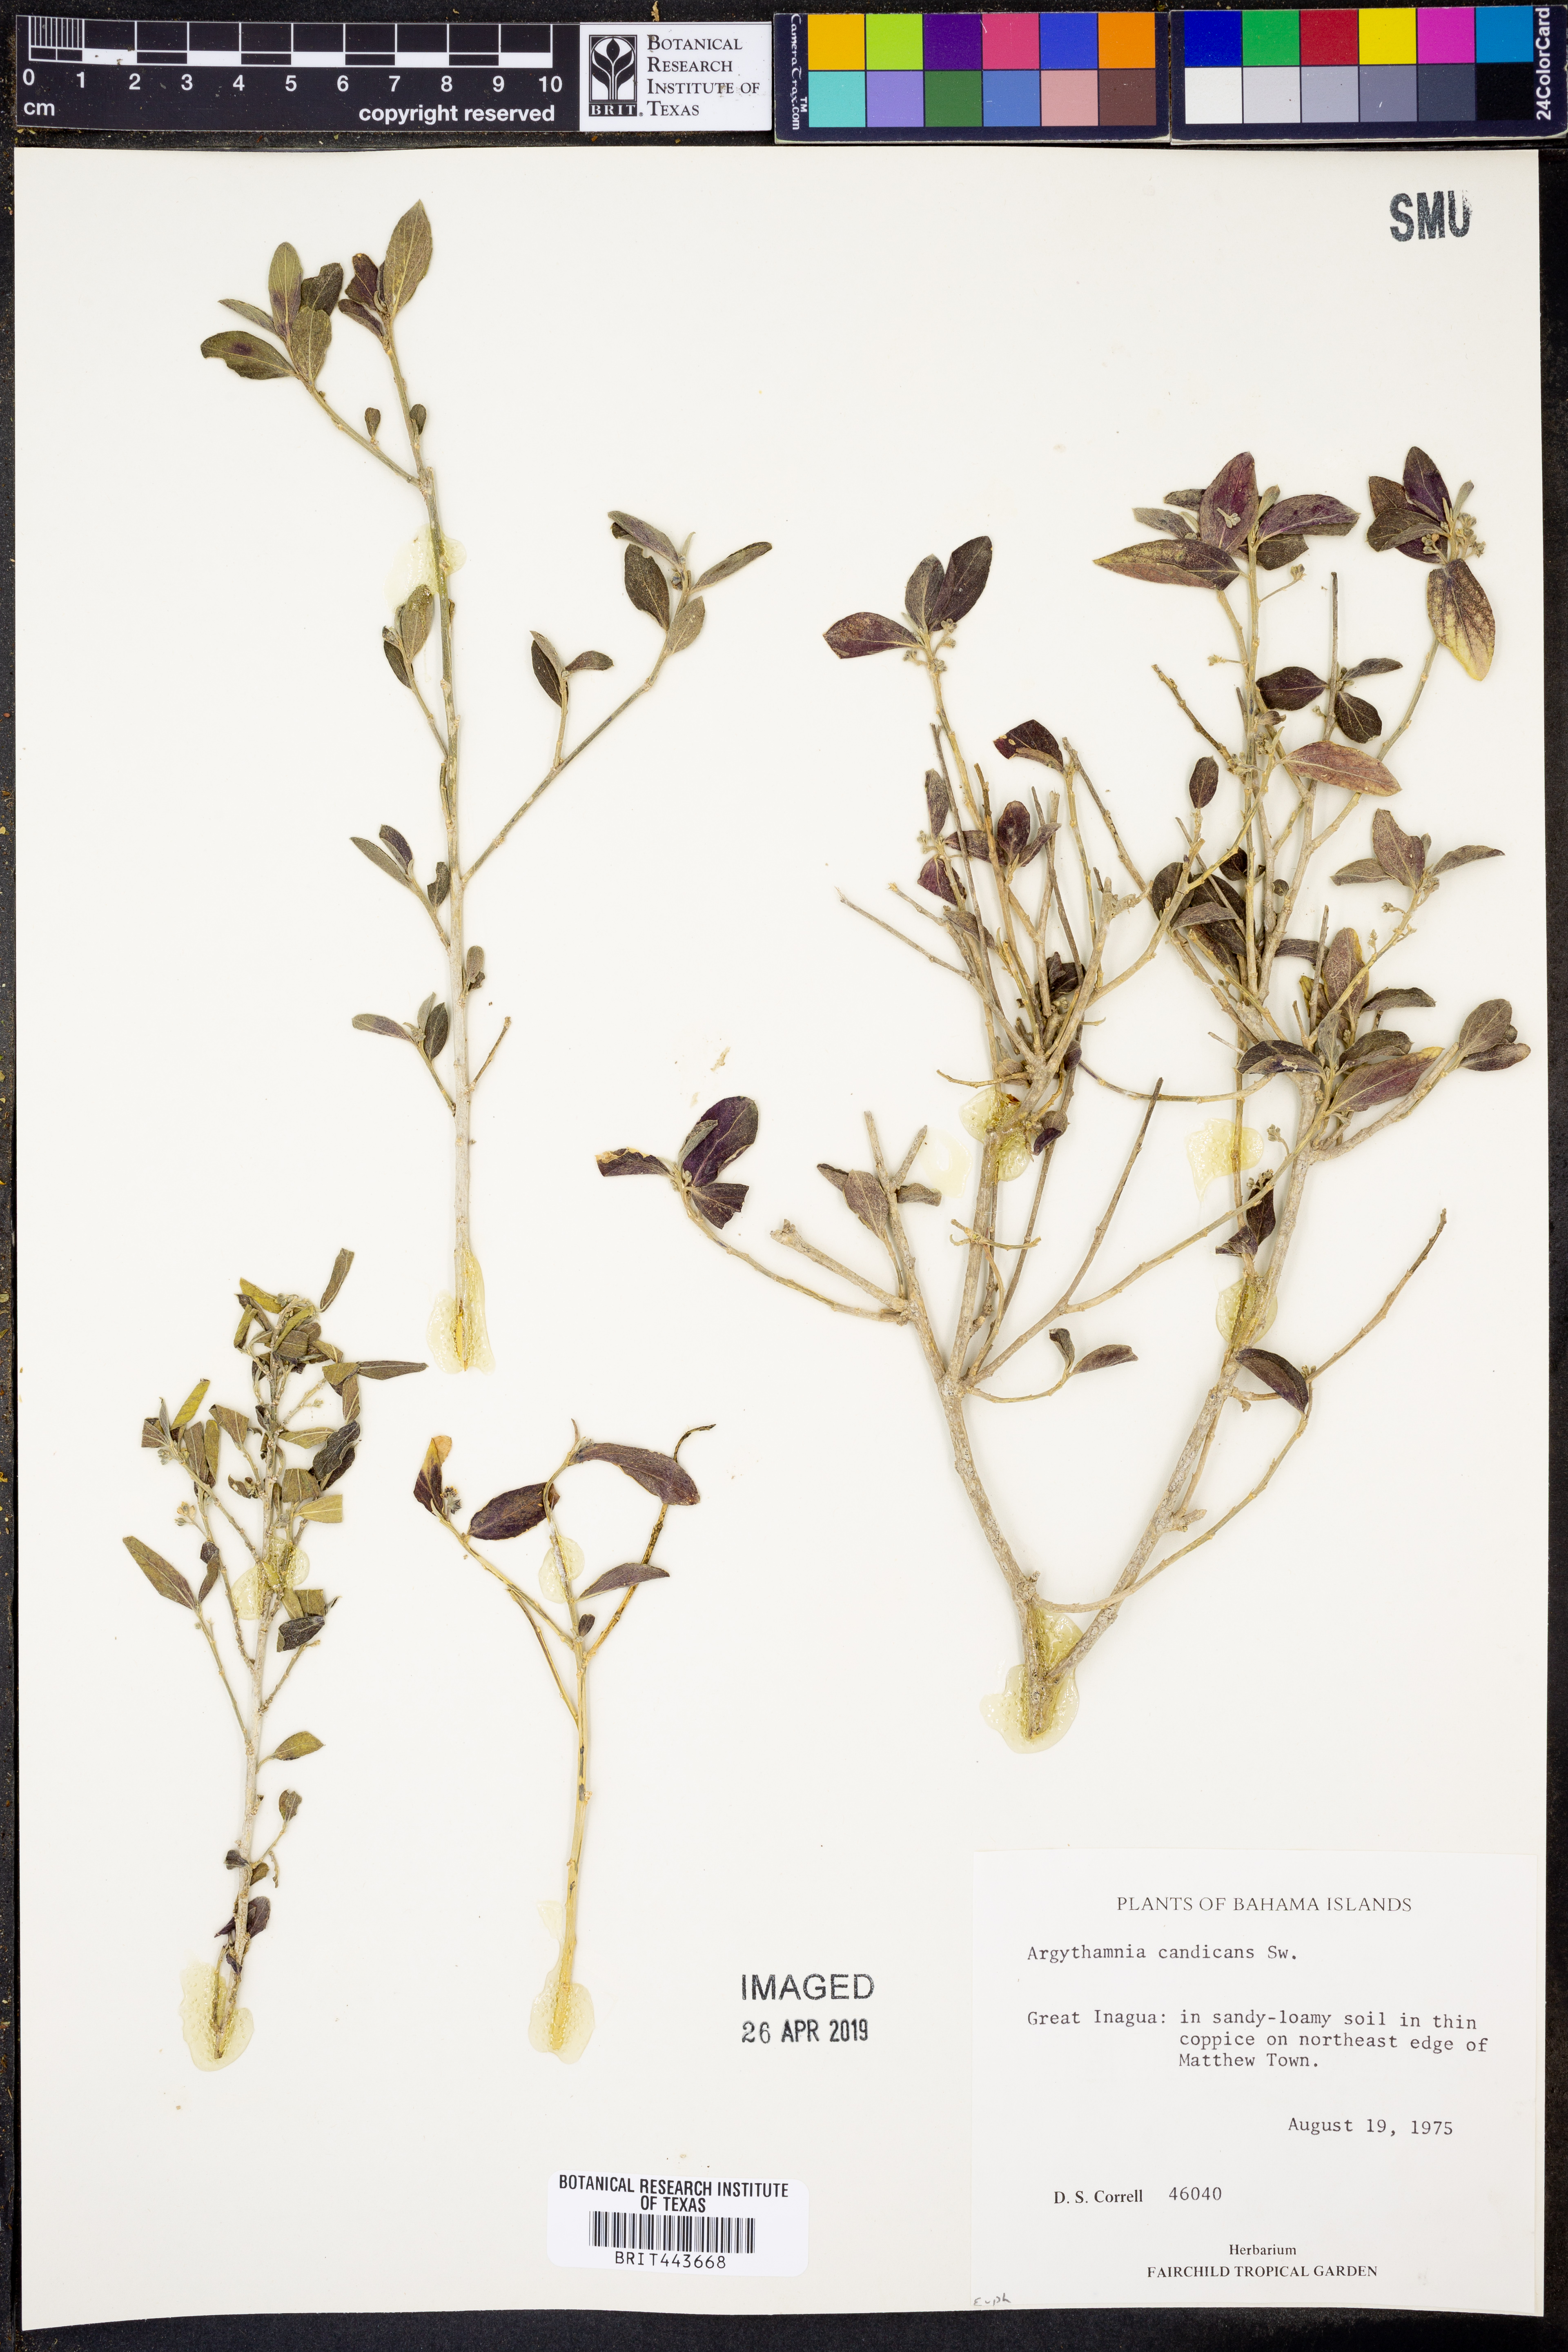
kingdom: Plantae
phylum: Tracheophyta
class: Magnoliopsida
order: Malpighiales
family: Euphorbiaceae
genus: Argythamnia
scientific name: Argythamnia candicans
